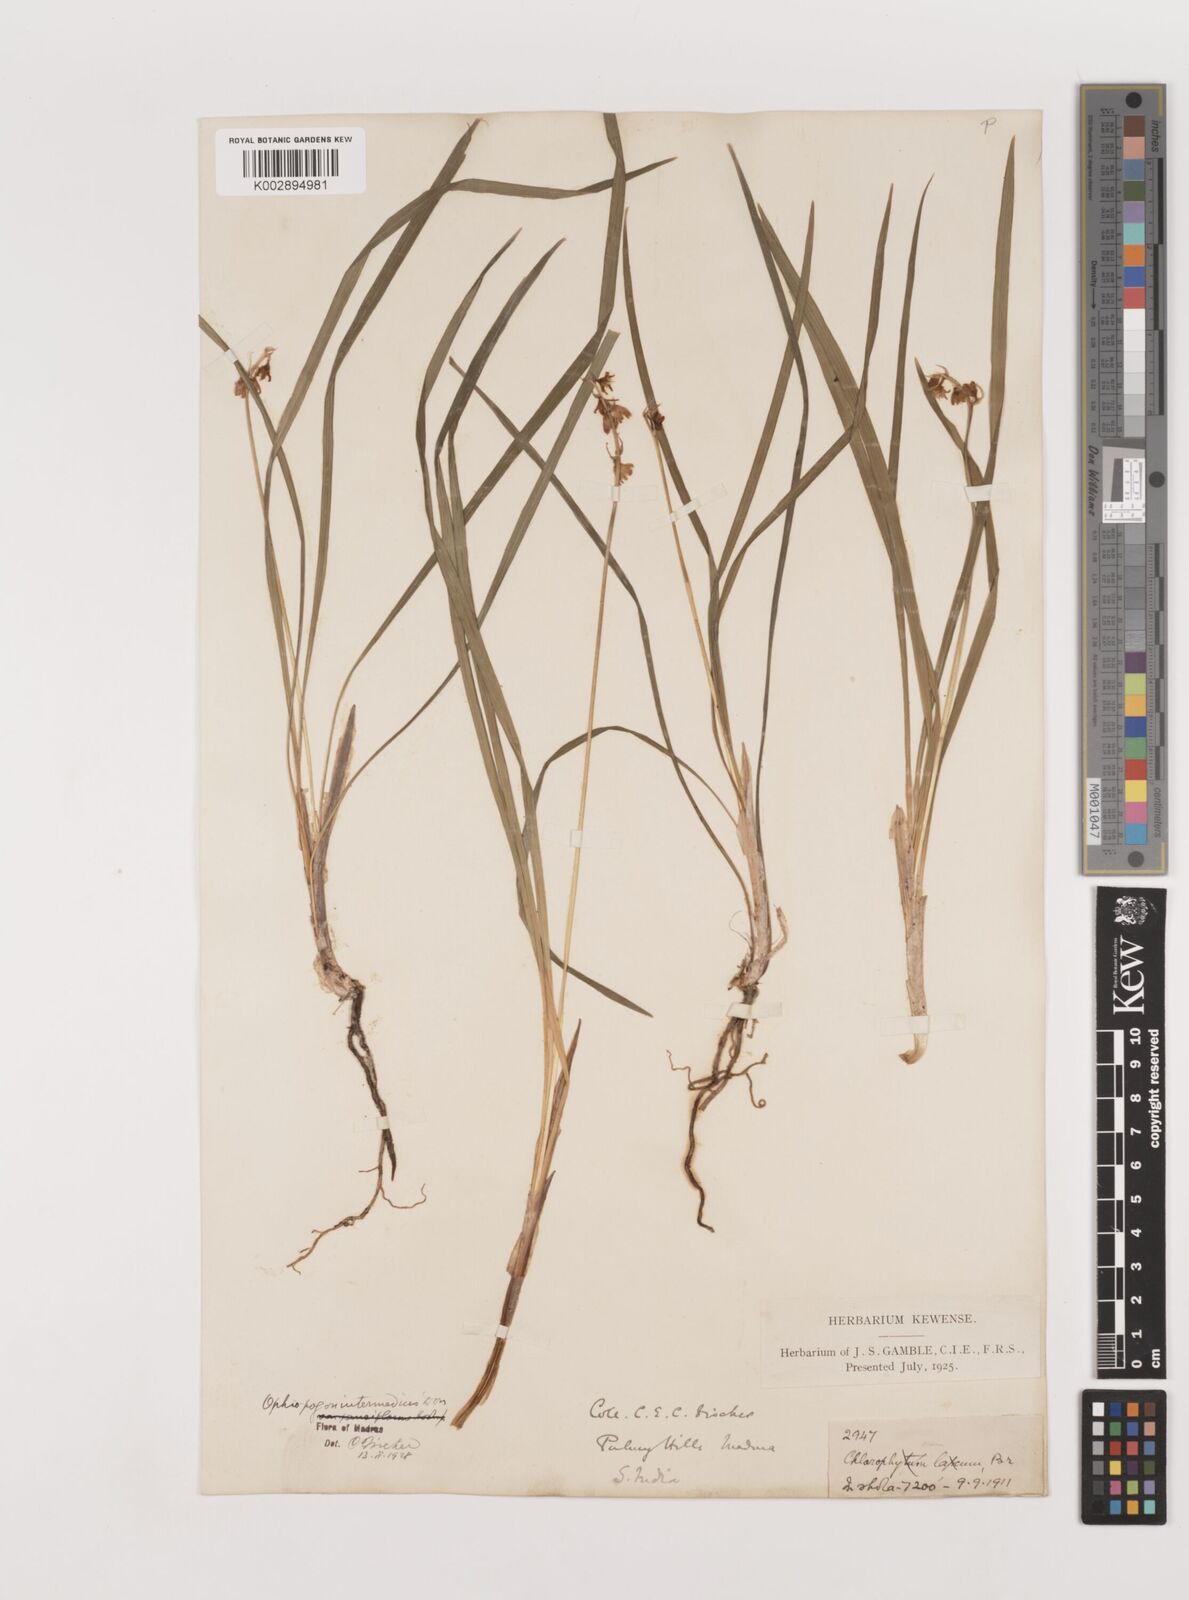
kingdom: Plantae
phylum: Tracheophyta
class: Liliopsida
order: Asparagales
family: Asparagaceae
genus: Ophiopogon
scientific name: Ophiopogon intermedius
